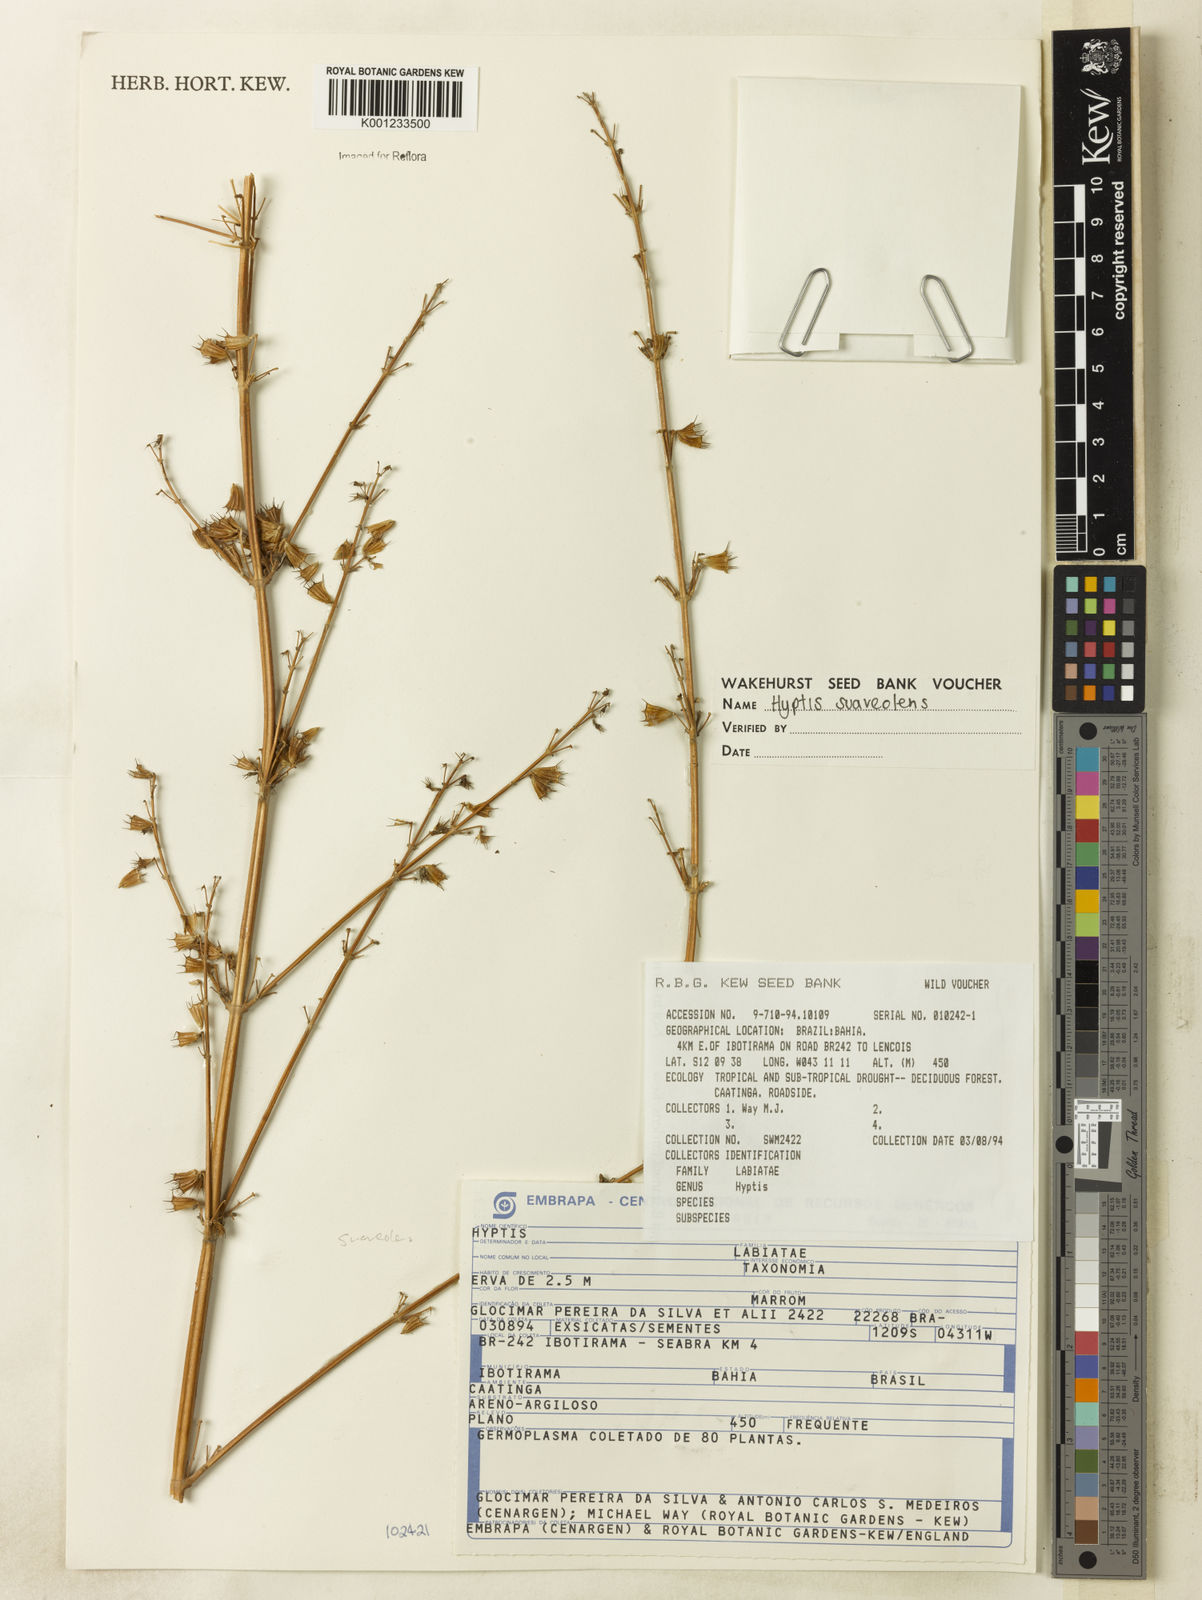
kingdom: Plantae
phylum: Tracheophyta
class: Magnoliopsida
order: Lamiales
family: Lamiaceae
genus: Mesosphaerum
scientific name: Mesosphaerum suaveolens
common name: Pignut
